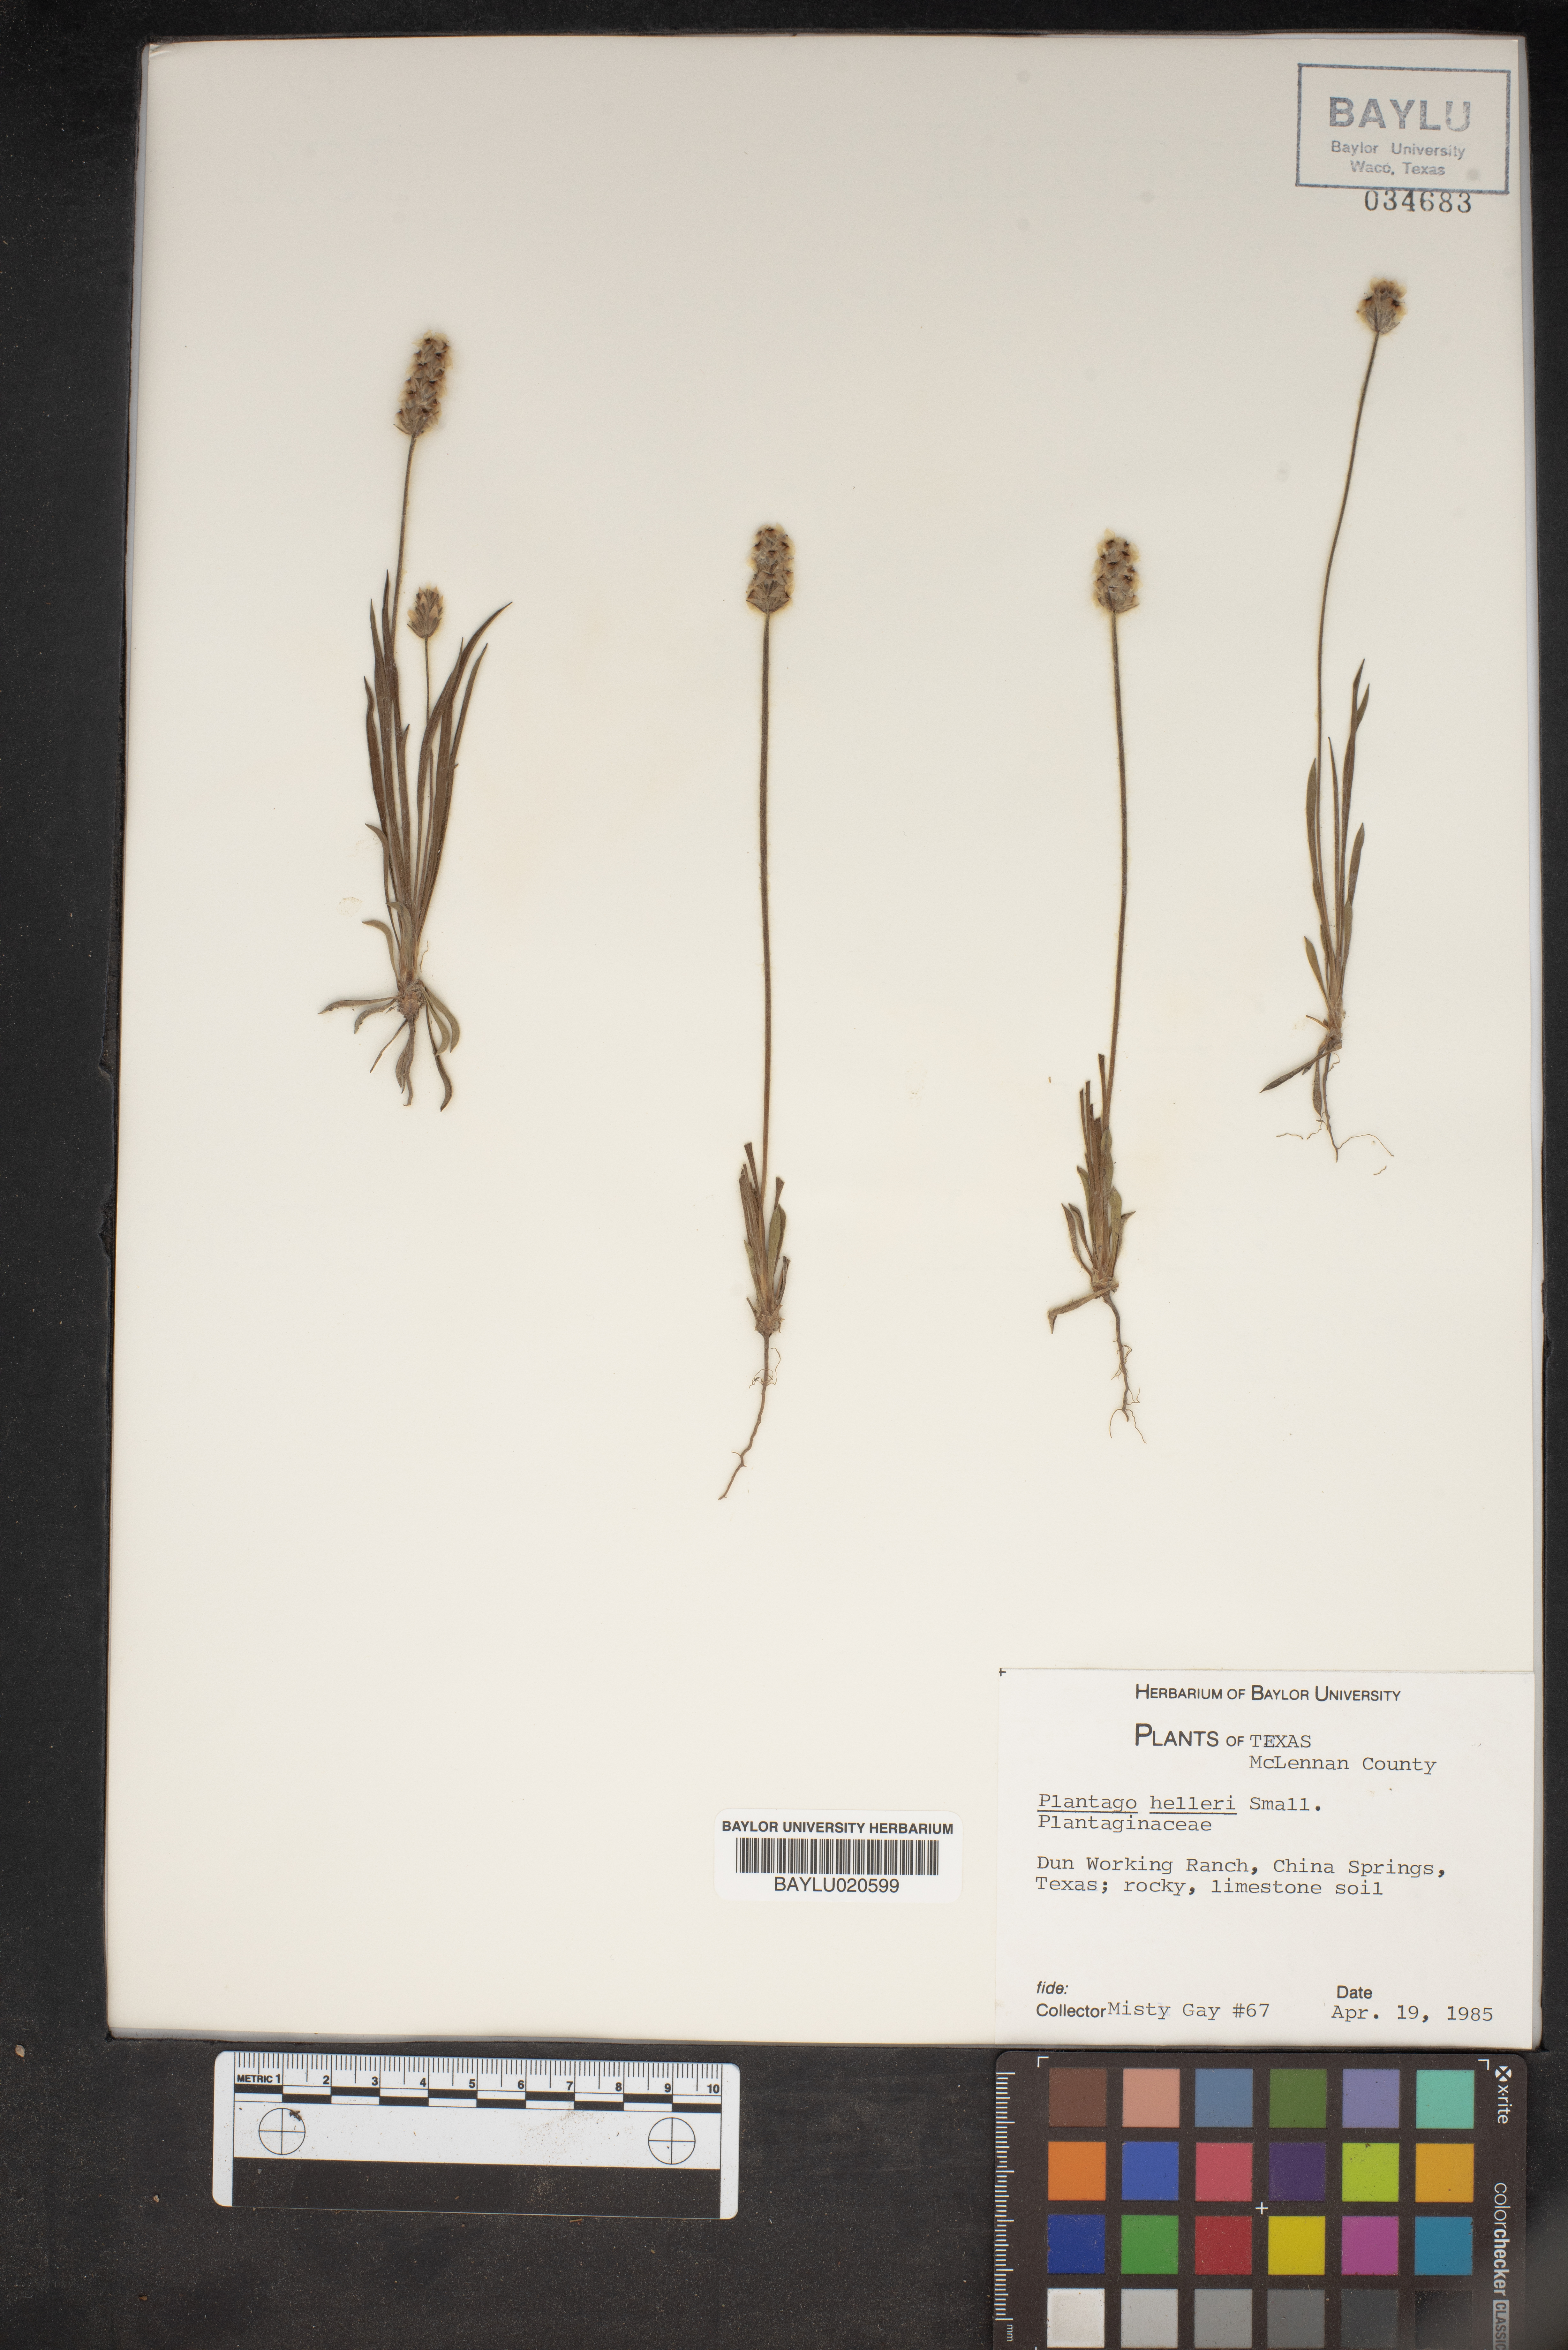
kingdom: Plantae
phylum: Tracheophyta
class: Magnoliopsida
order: Lamiales
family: Plantaginaceae
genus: Plantago
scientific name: Plantago helleri
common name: Heller's plantain
